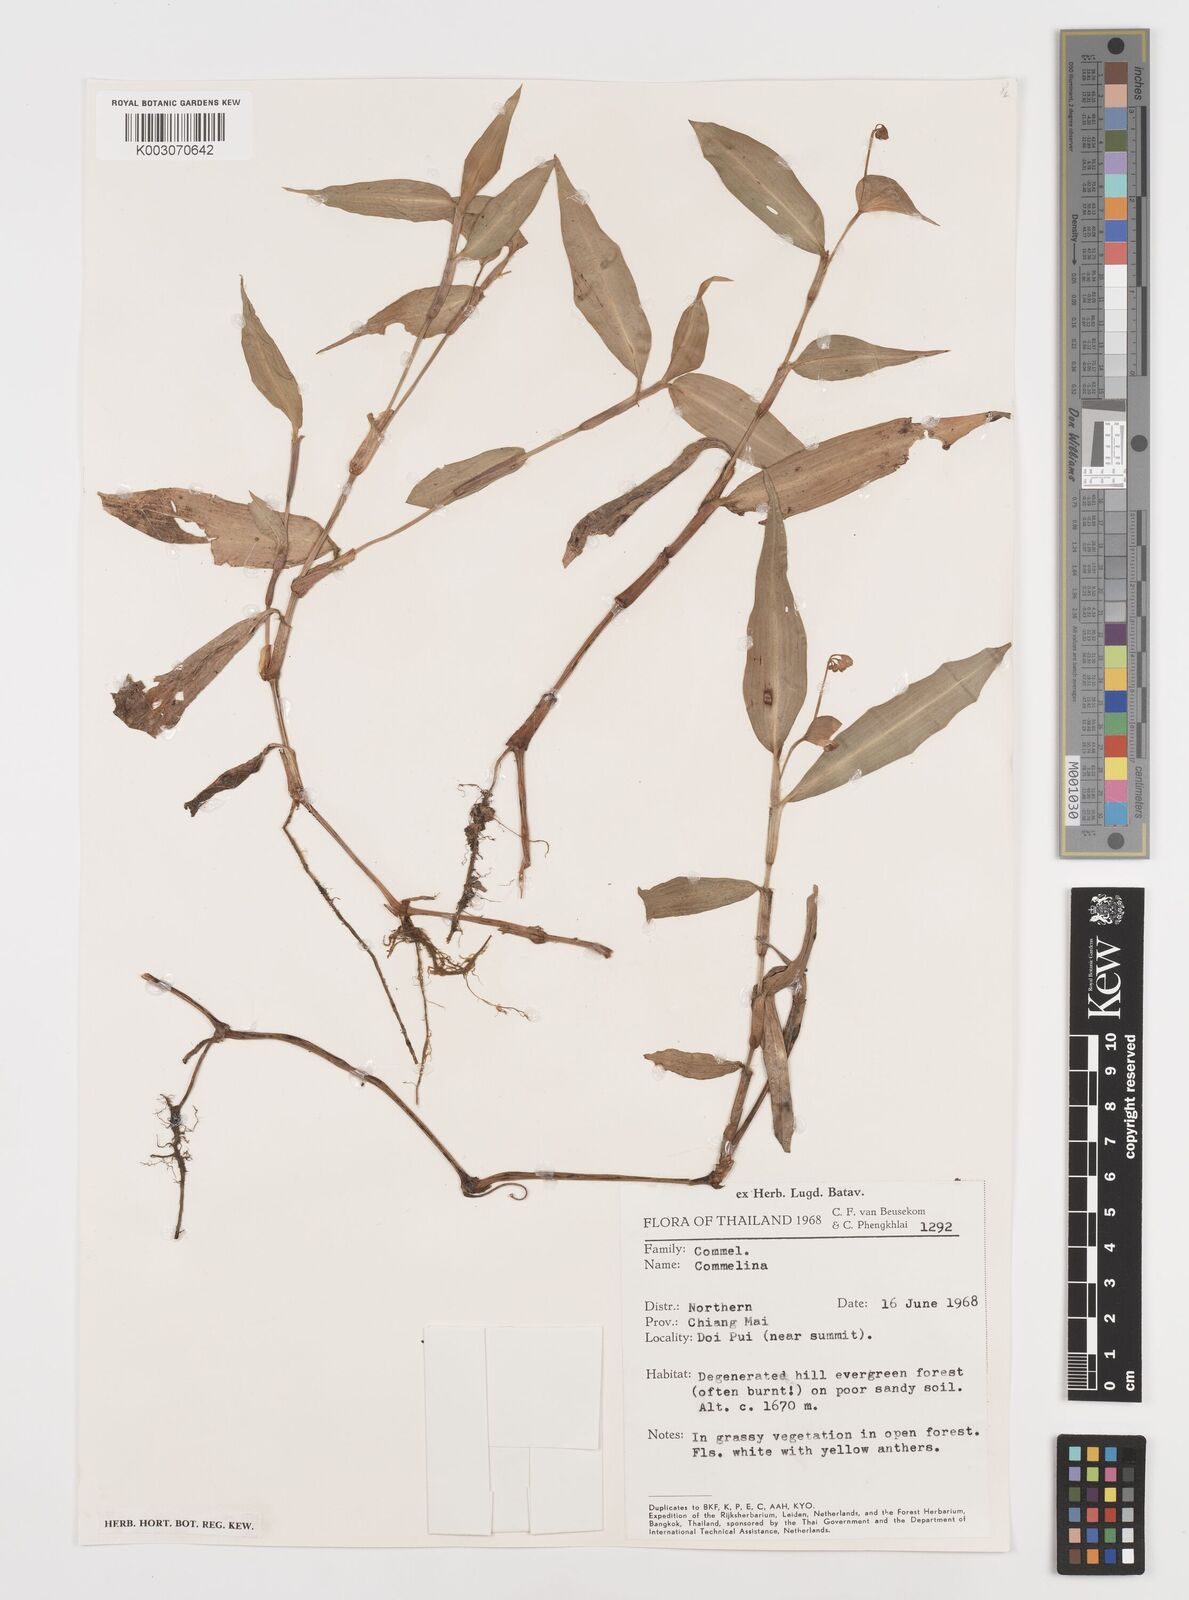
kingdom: Plantae
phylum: Tracheophyta
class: Liliopsida
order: Commelinales
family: Commelinaceae
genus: Commelina
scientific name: Commelina
